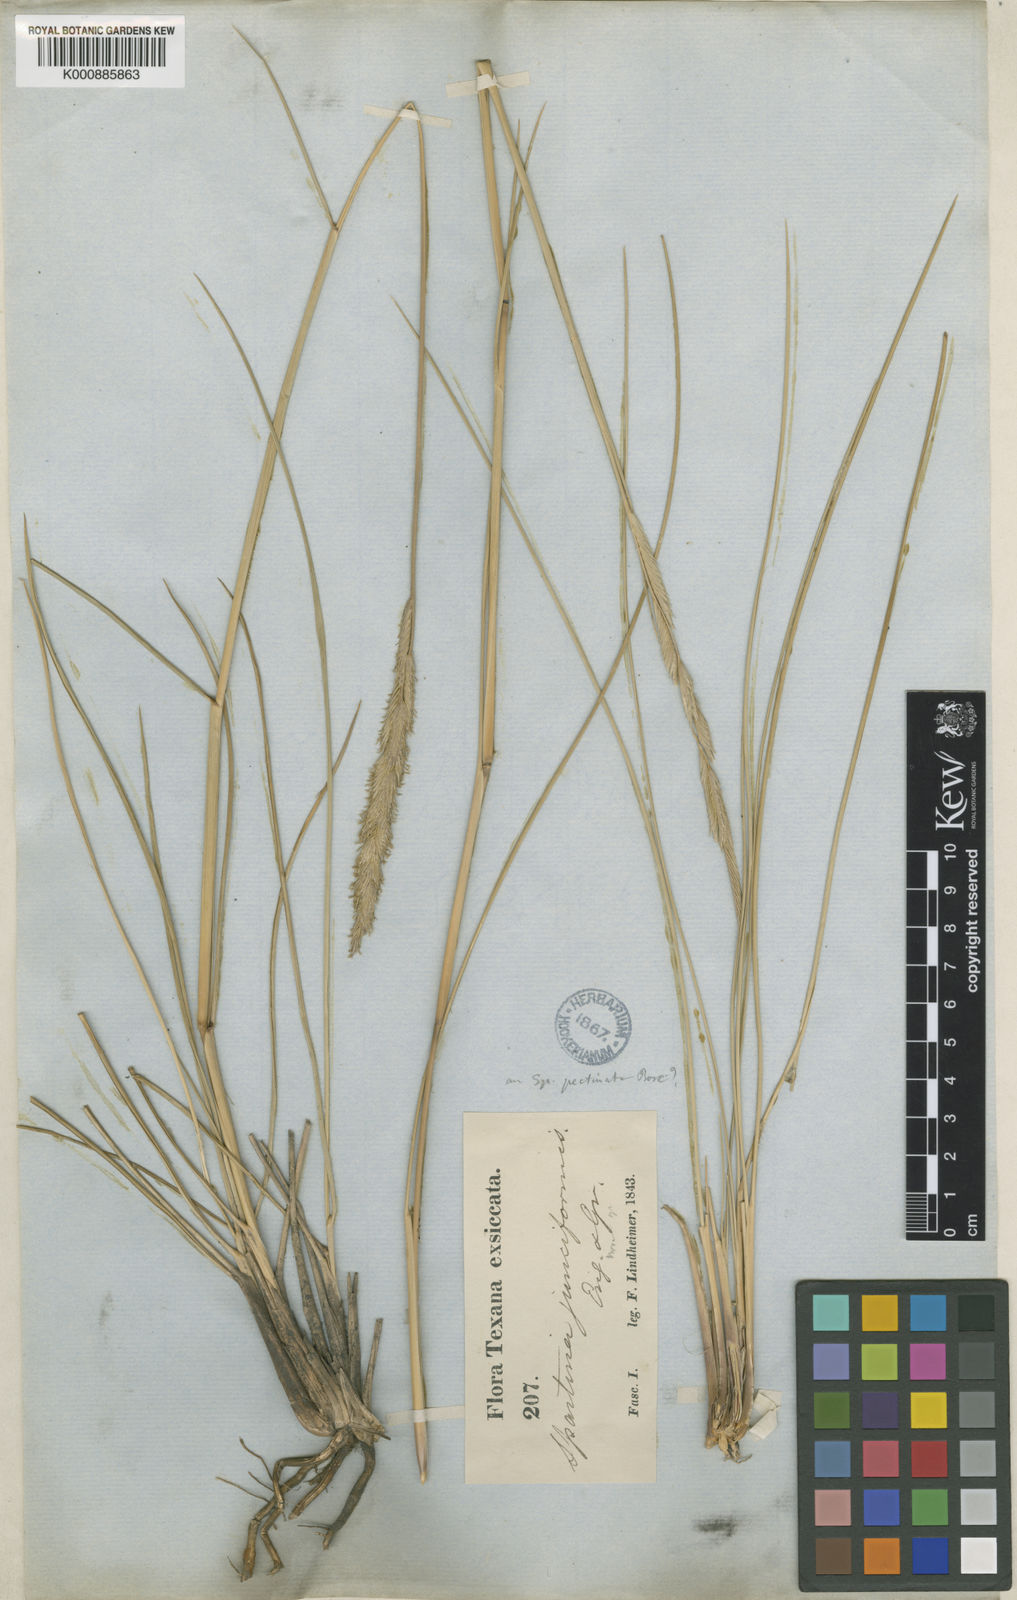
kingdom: Animalia
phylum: Mollusca
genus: Spartina
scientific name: Spartina
